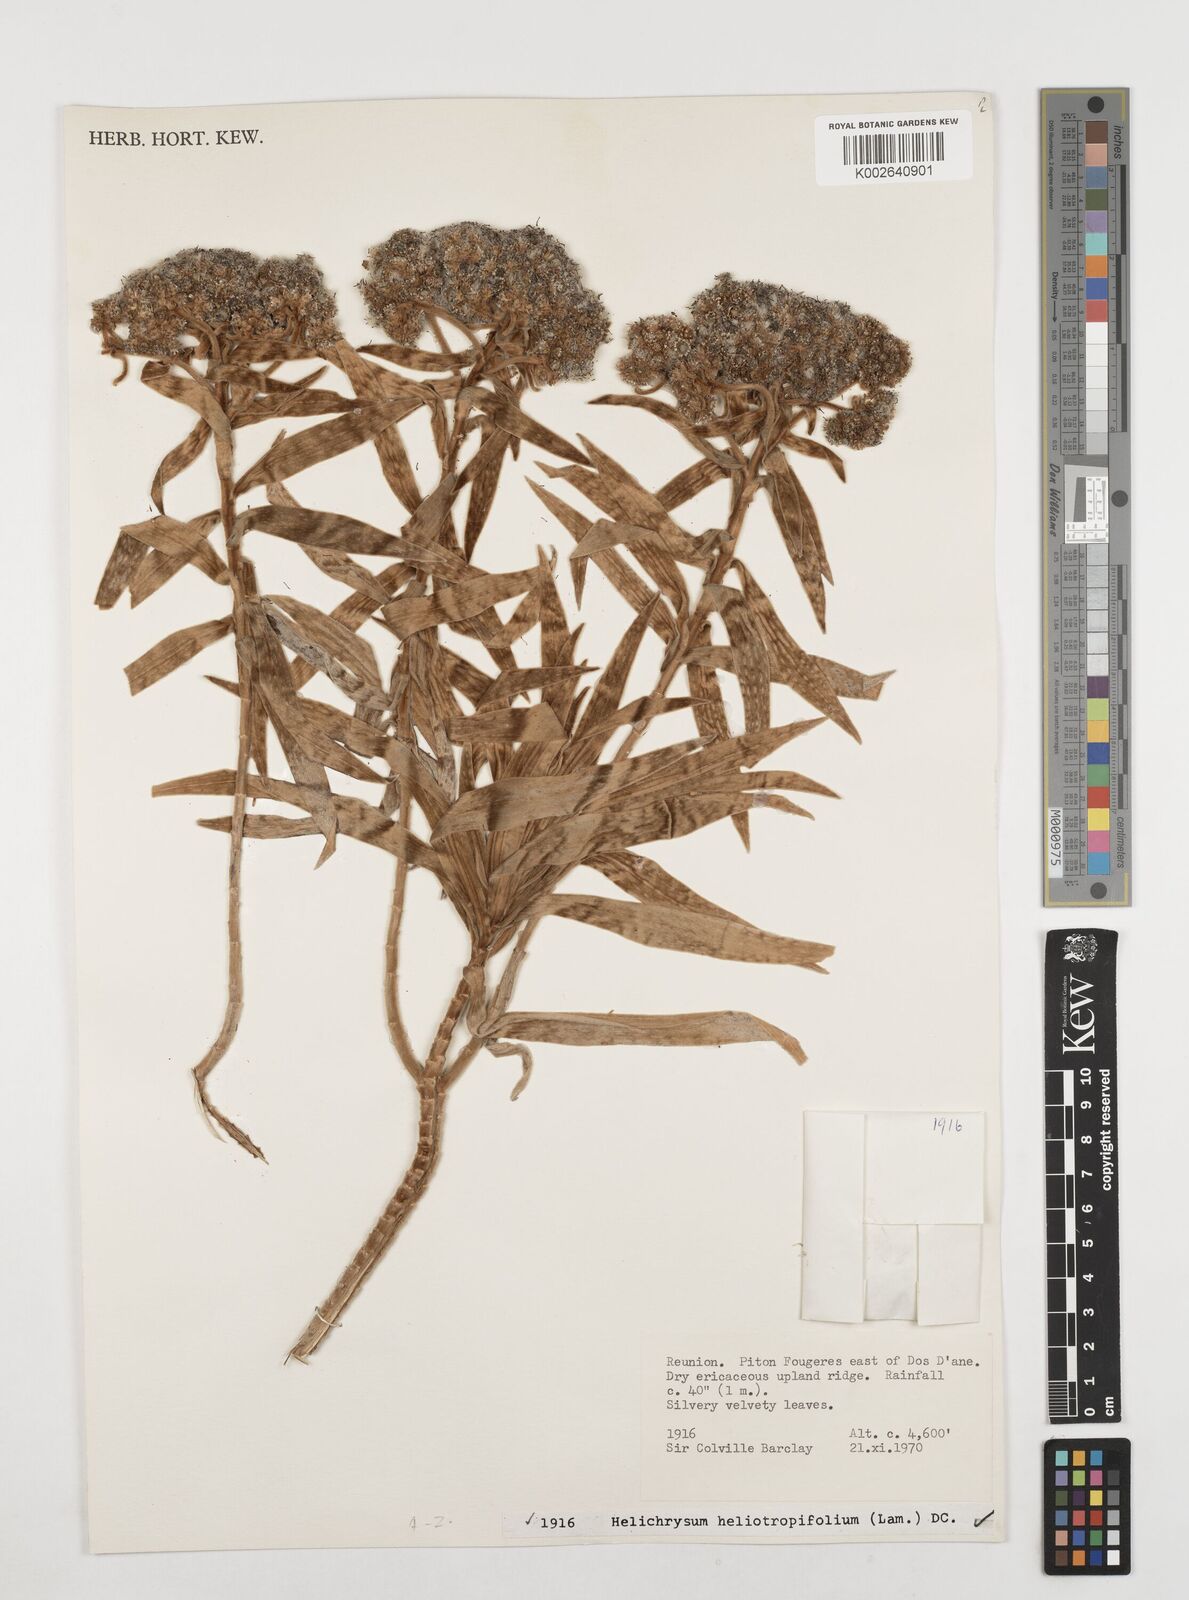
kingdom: Plantae
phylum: Tracheophyta
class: Magnoliopsida
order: Asterales
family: Asteraceae
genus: Helichrysum
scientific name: Helichrysum heliotropifolium
